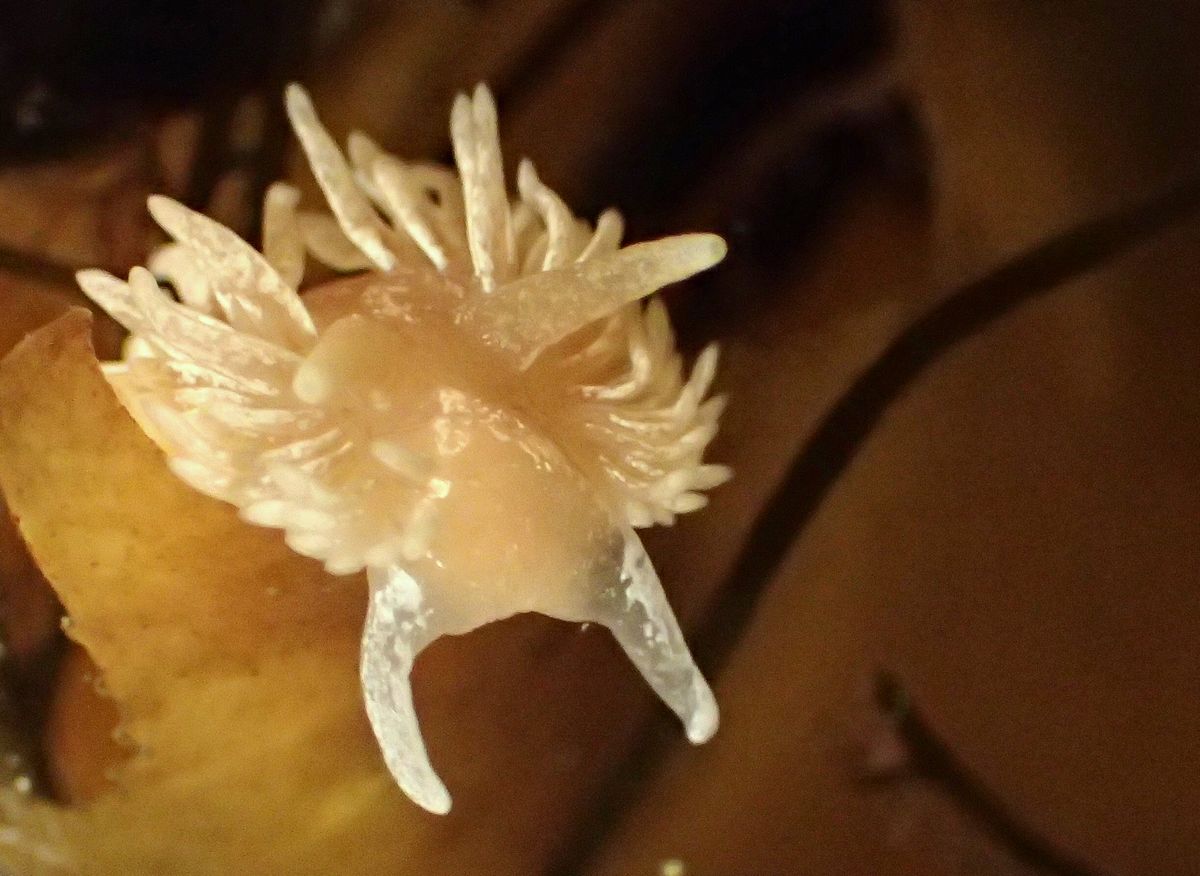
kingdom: Animalia
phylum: Mollusca
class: Gastropoda
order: Nudibranchia
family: Aeolidiidae
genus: Aeolidia
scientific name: Aeolidia papillosa
